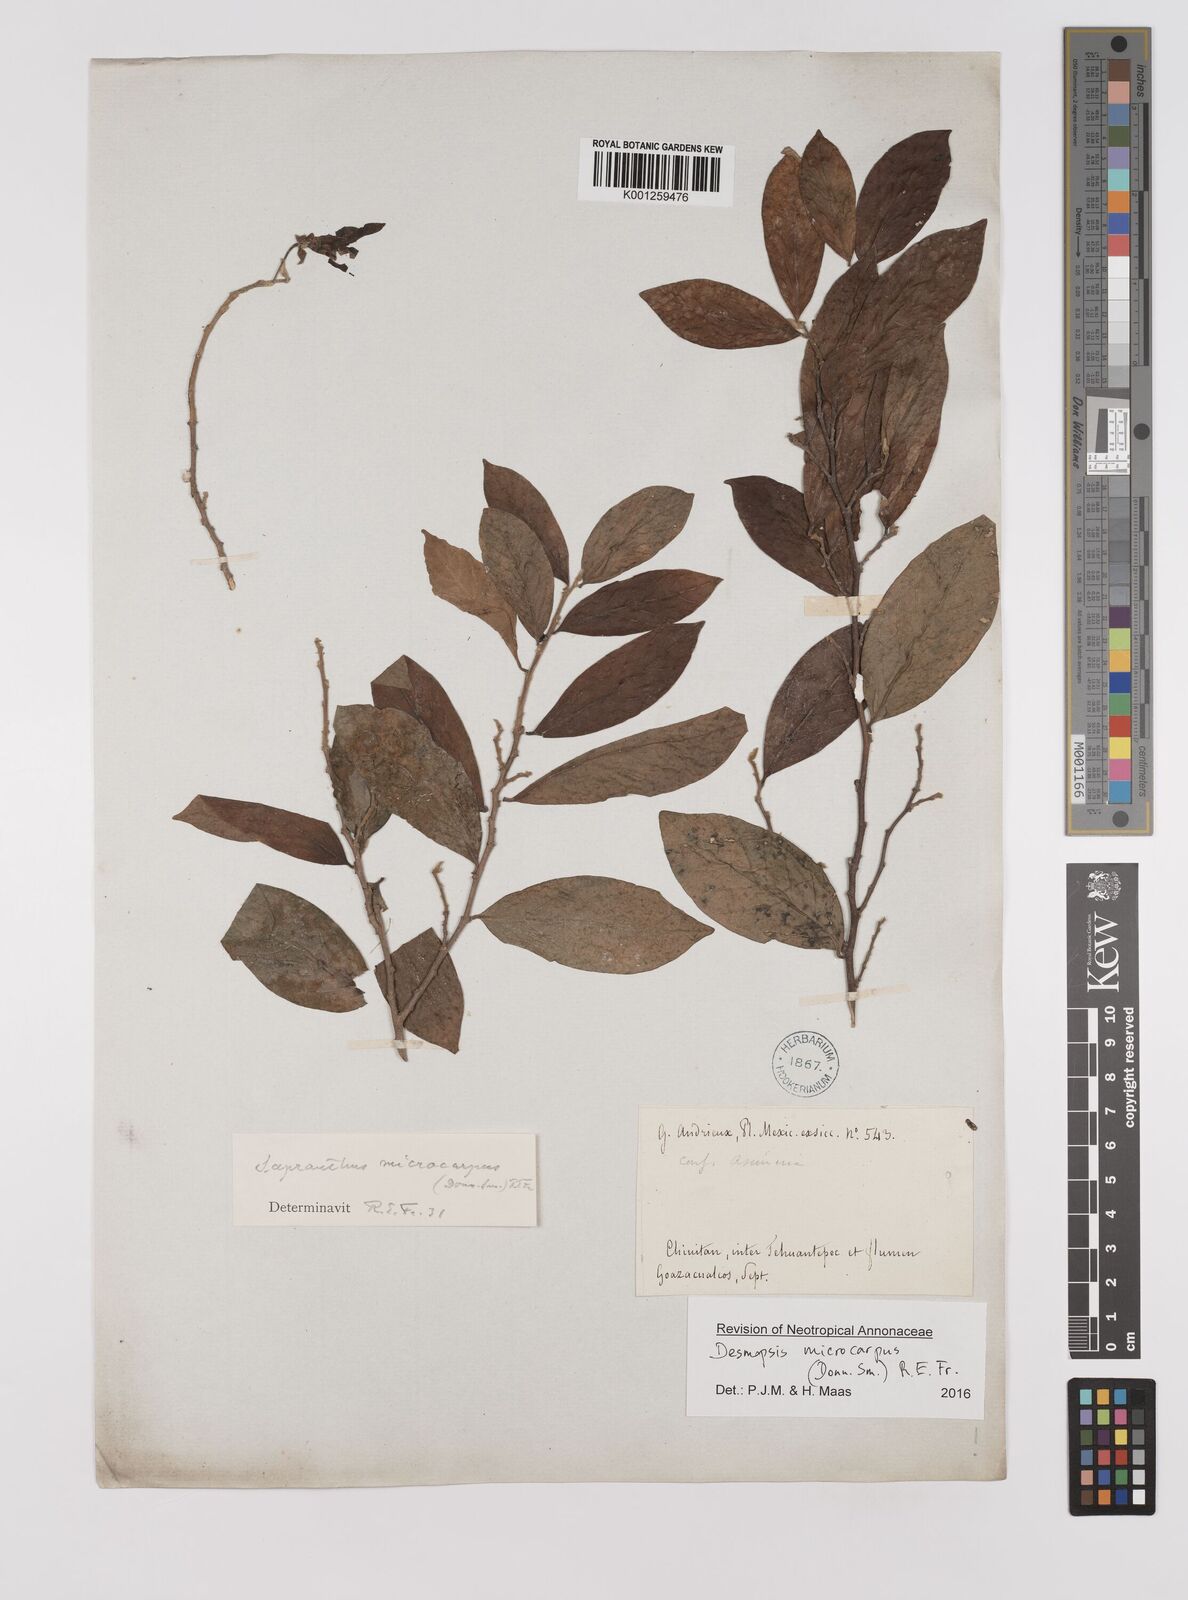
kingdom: Plantae
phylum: Tracheophyta
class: Magnoliopsida
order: Magnoliales
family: Annonaceae
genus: Desmopsis
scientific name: Desmopsis microcarpa
